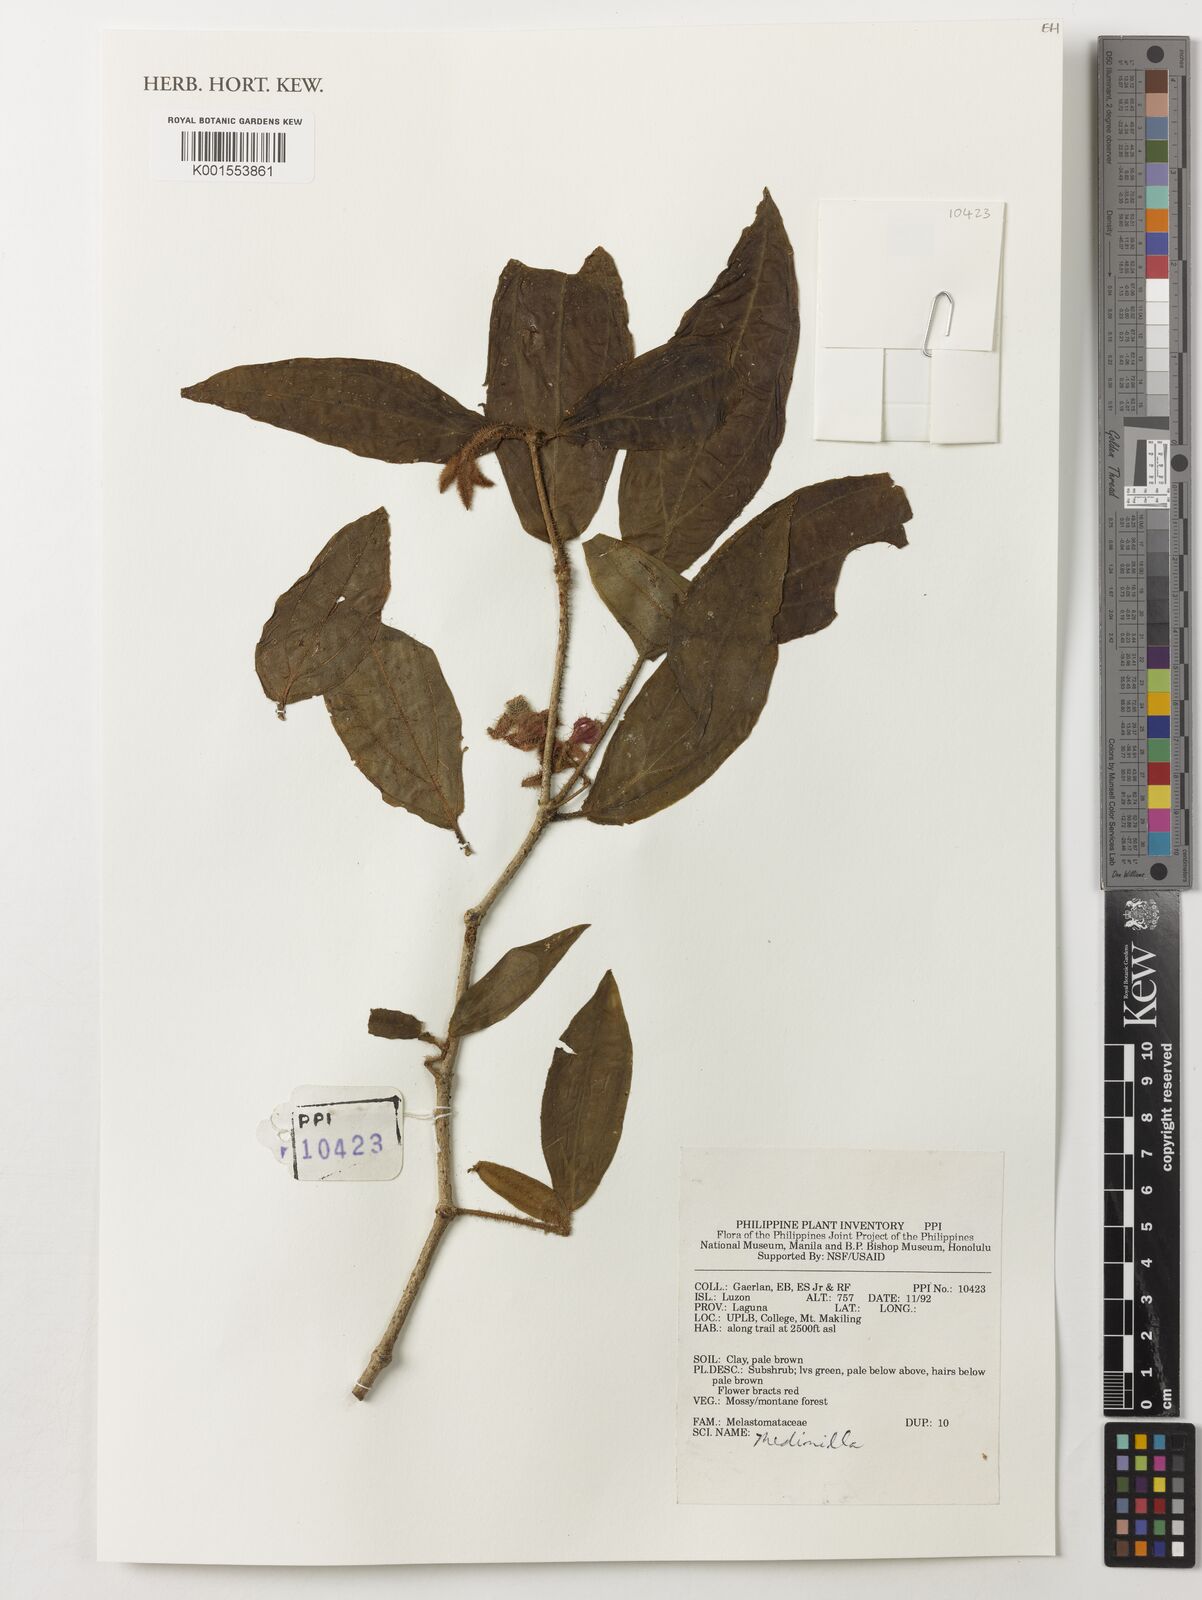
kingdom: Plantae
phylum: Tracheophyta
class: Magnoliopsida
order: Myrtales
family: Melastomataceae
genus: Medinilla
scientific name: Medinilla
